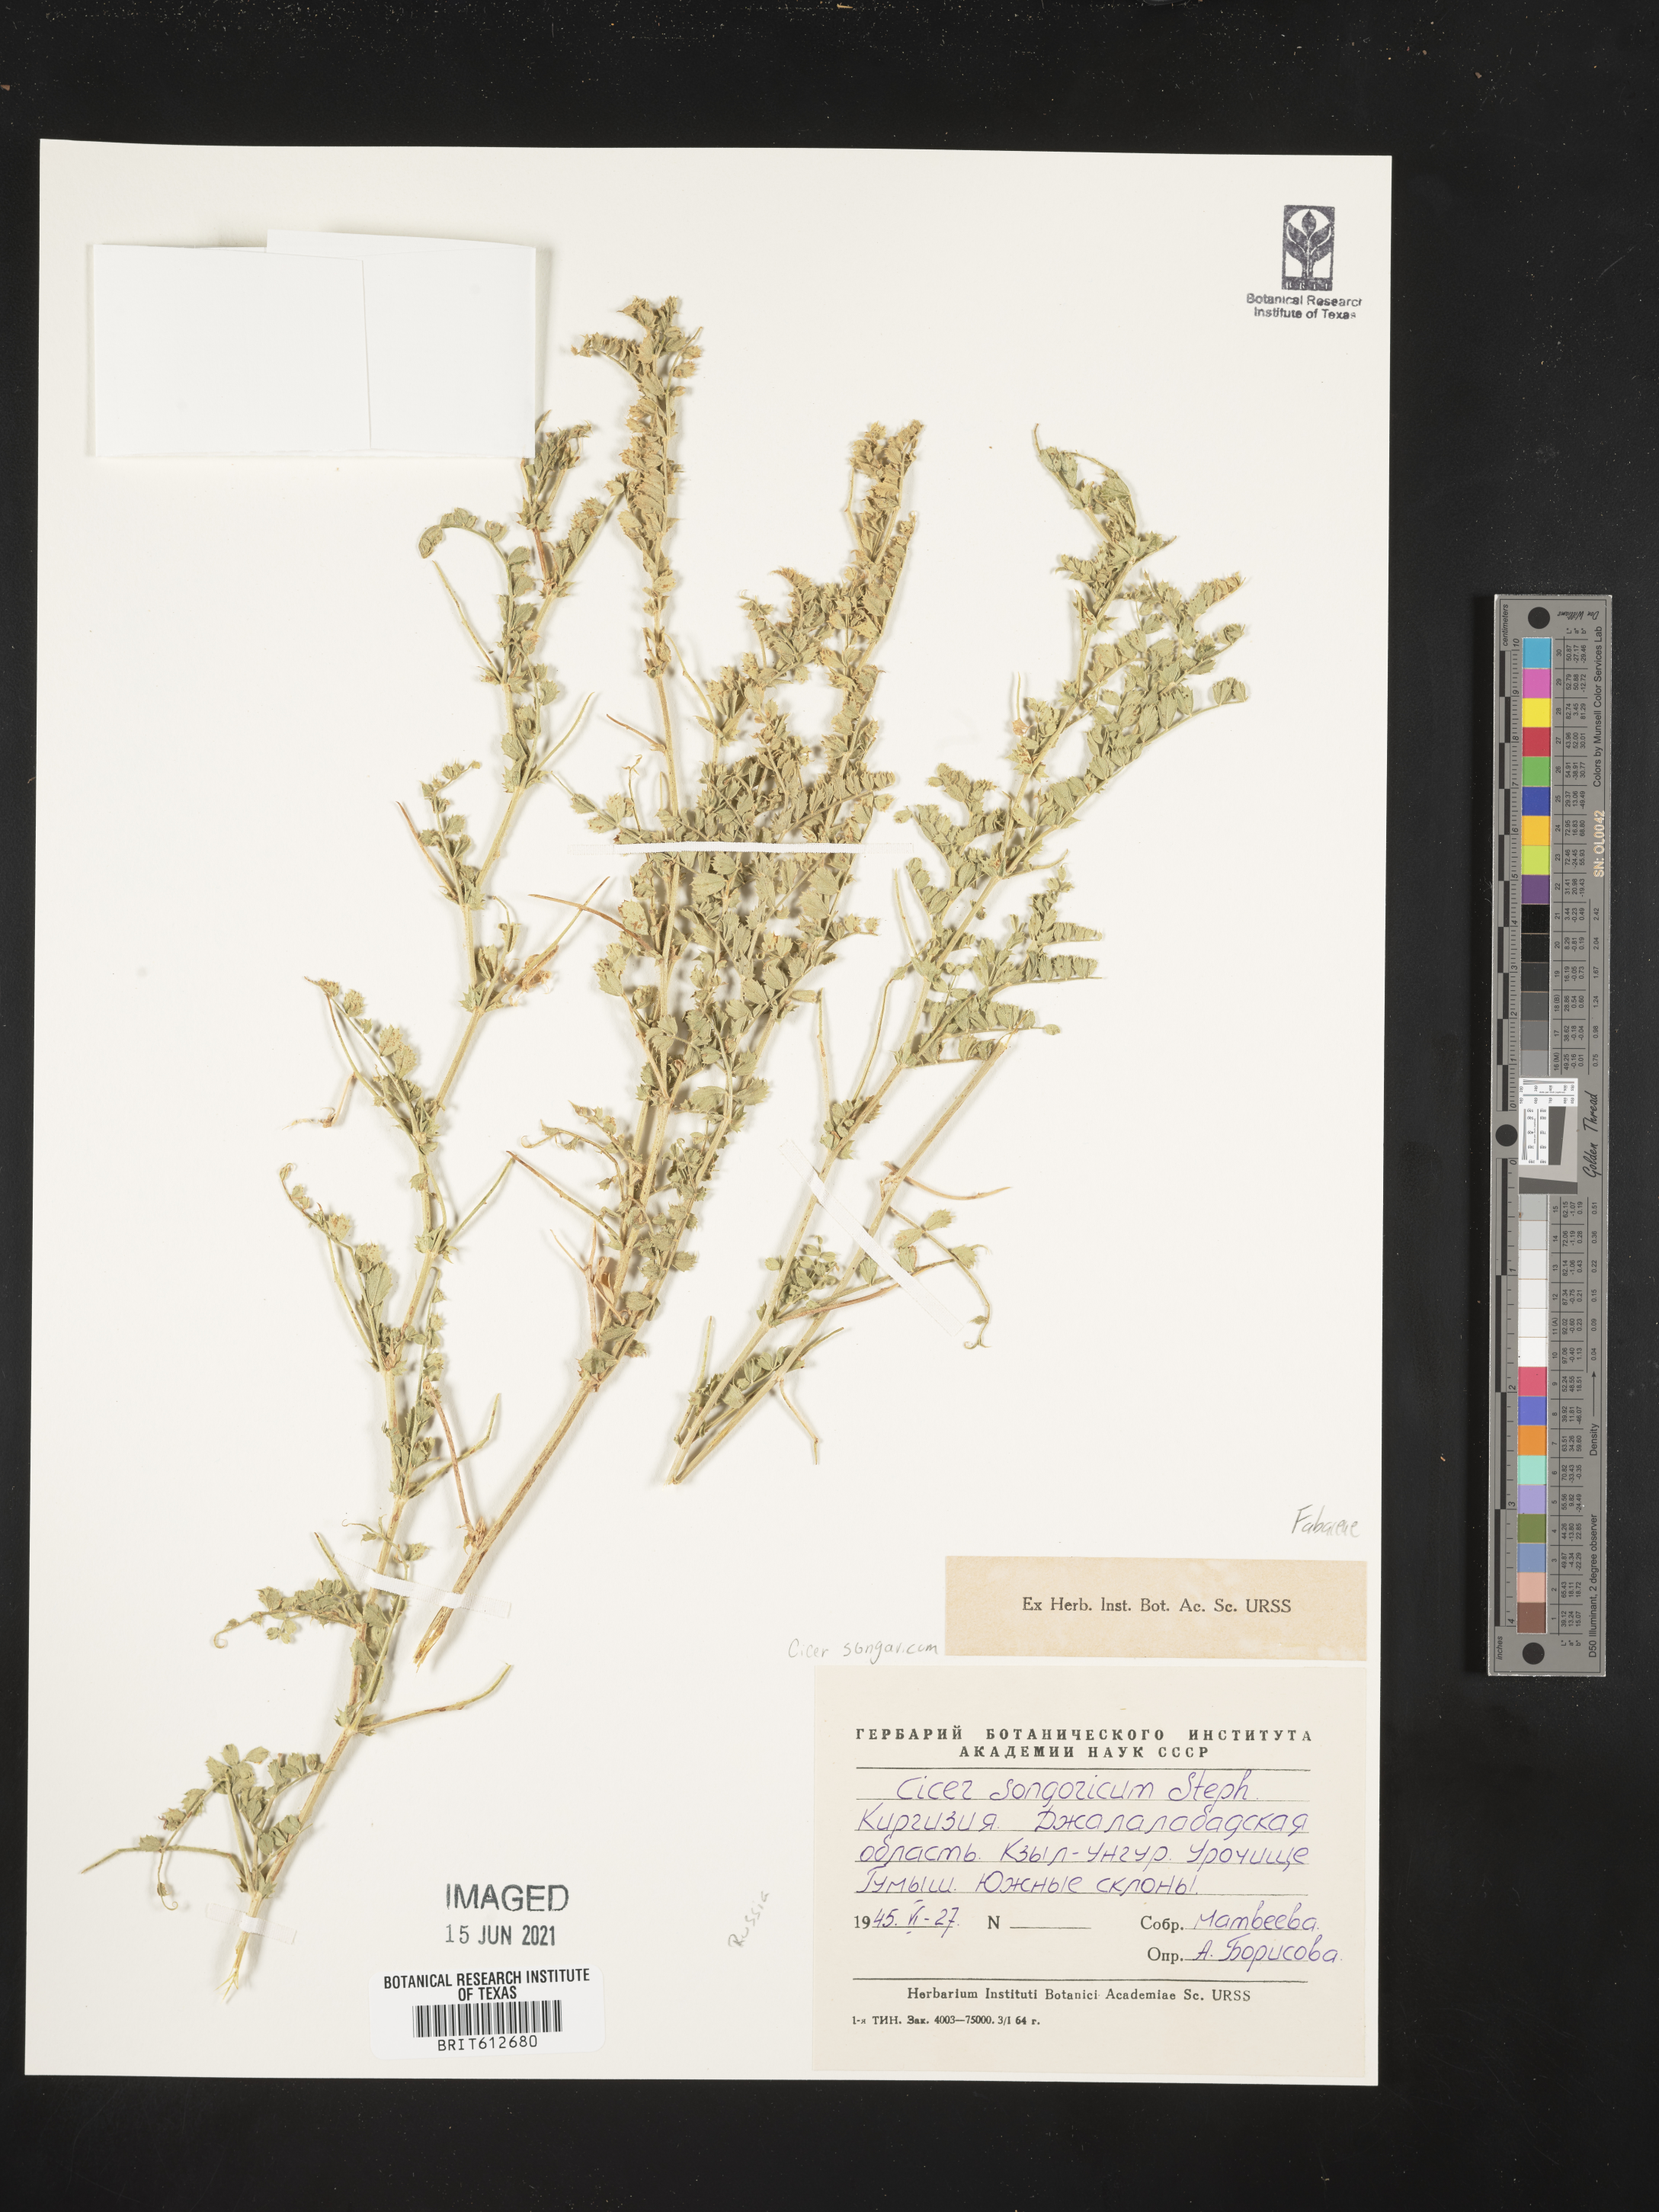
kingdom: Plantae
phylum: Tracheophyta
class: Magnoliopsida
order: Fabales
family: Fabaceae
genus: Cicer
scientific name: Cicer songaricum
